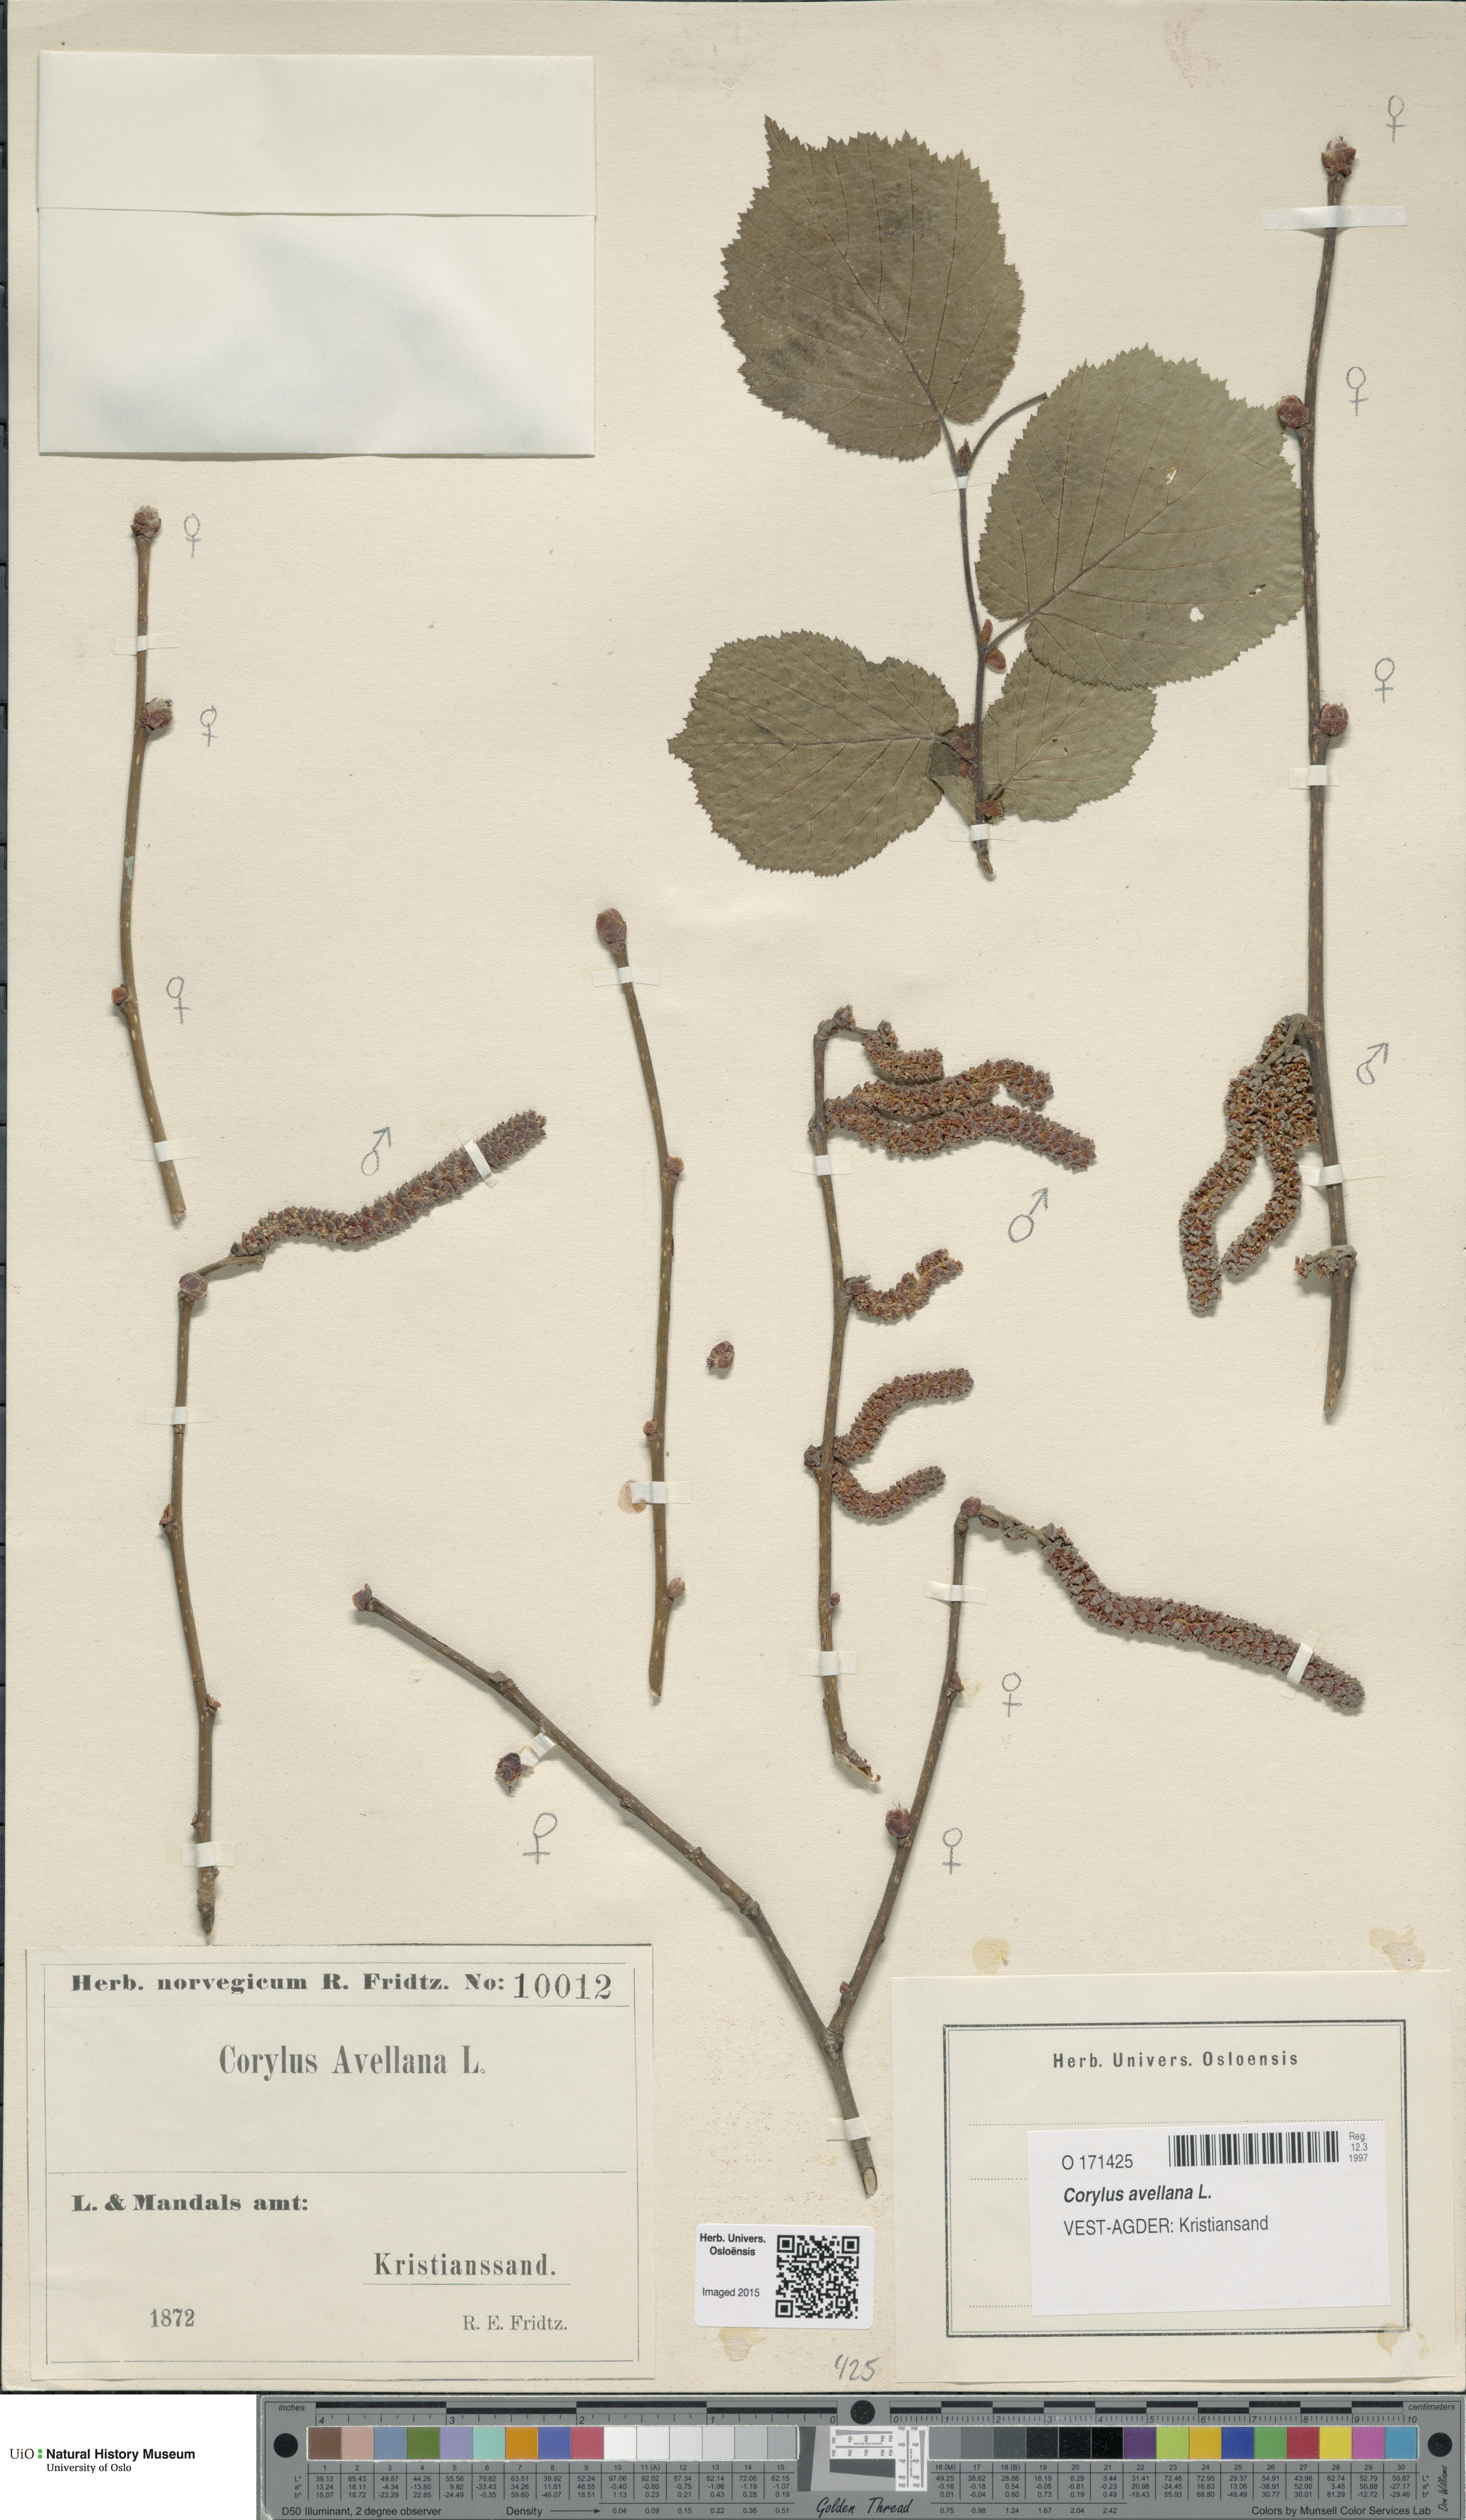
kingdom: Plantae
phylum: Tracheophyta
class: Magnoliopsida
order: Fagales
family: Betulaceae
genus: Corylus
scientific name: Corylus avellana
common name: European hazel
